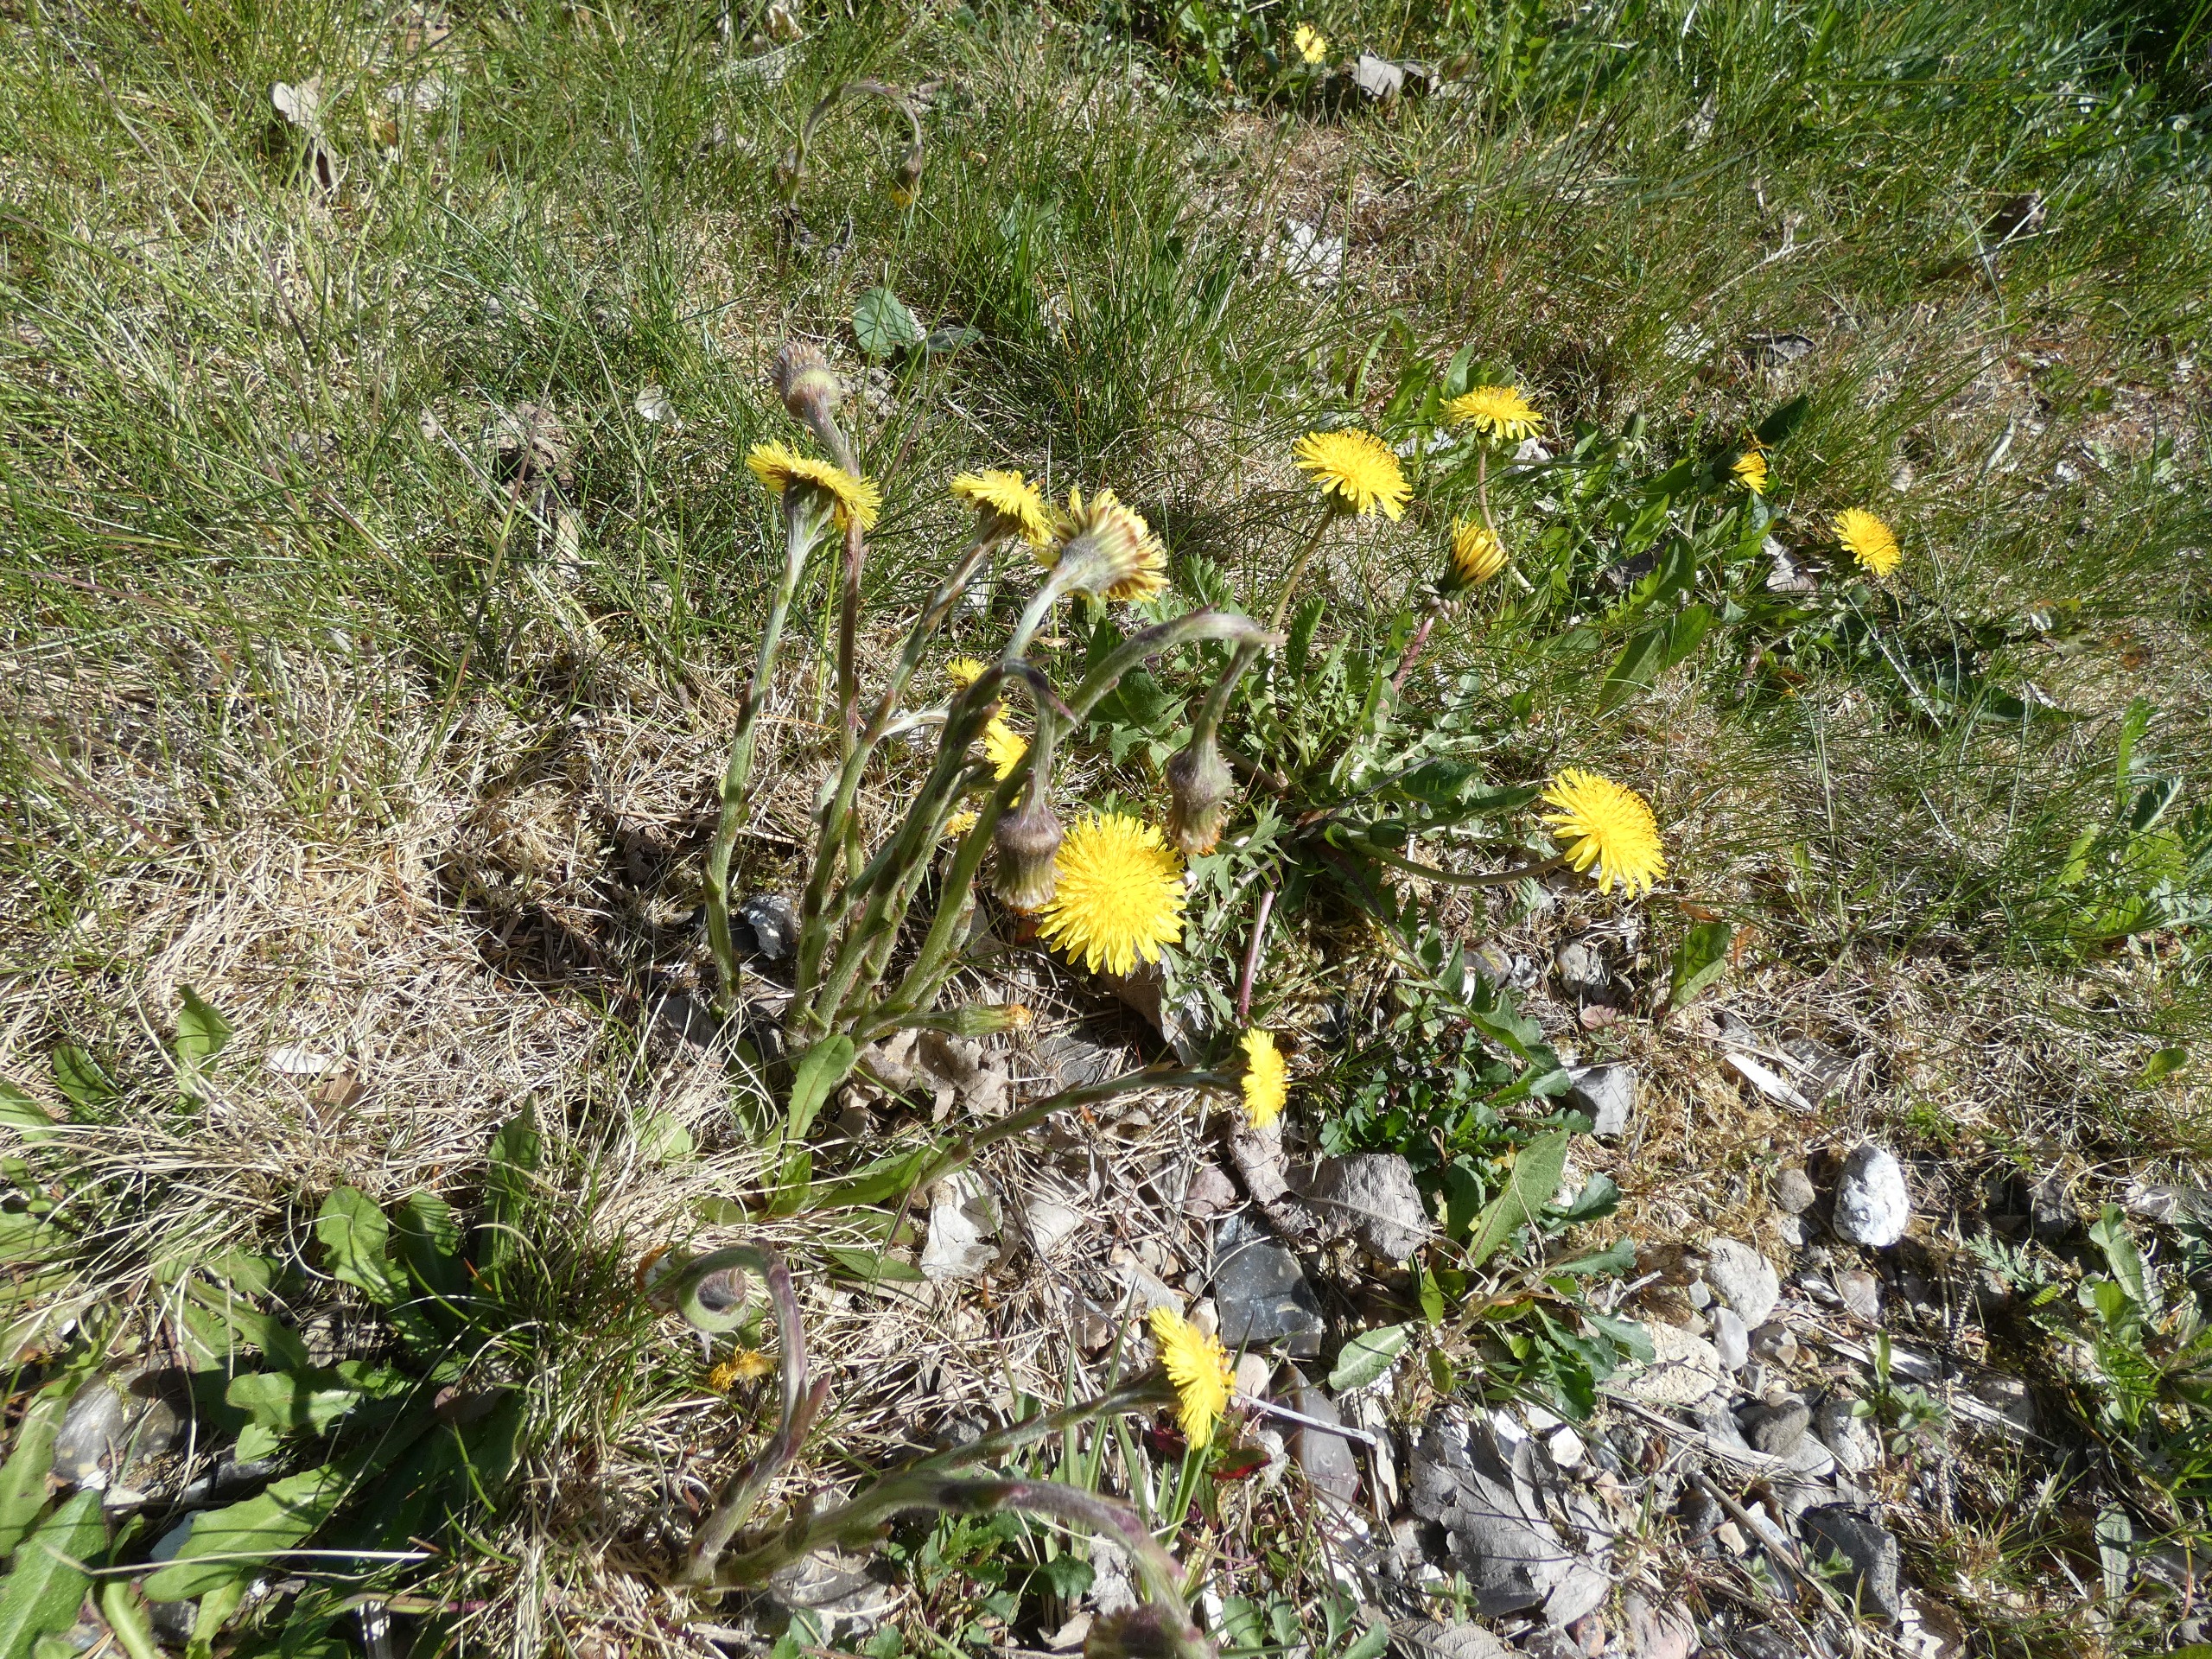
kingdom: Plantae
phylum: Tracheophyta
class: Magnoliopsida
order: Asterales
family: Asteraceae
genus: Tussilago
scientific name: Tussilago farfara
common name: Følfod
